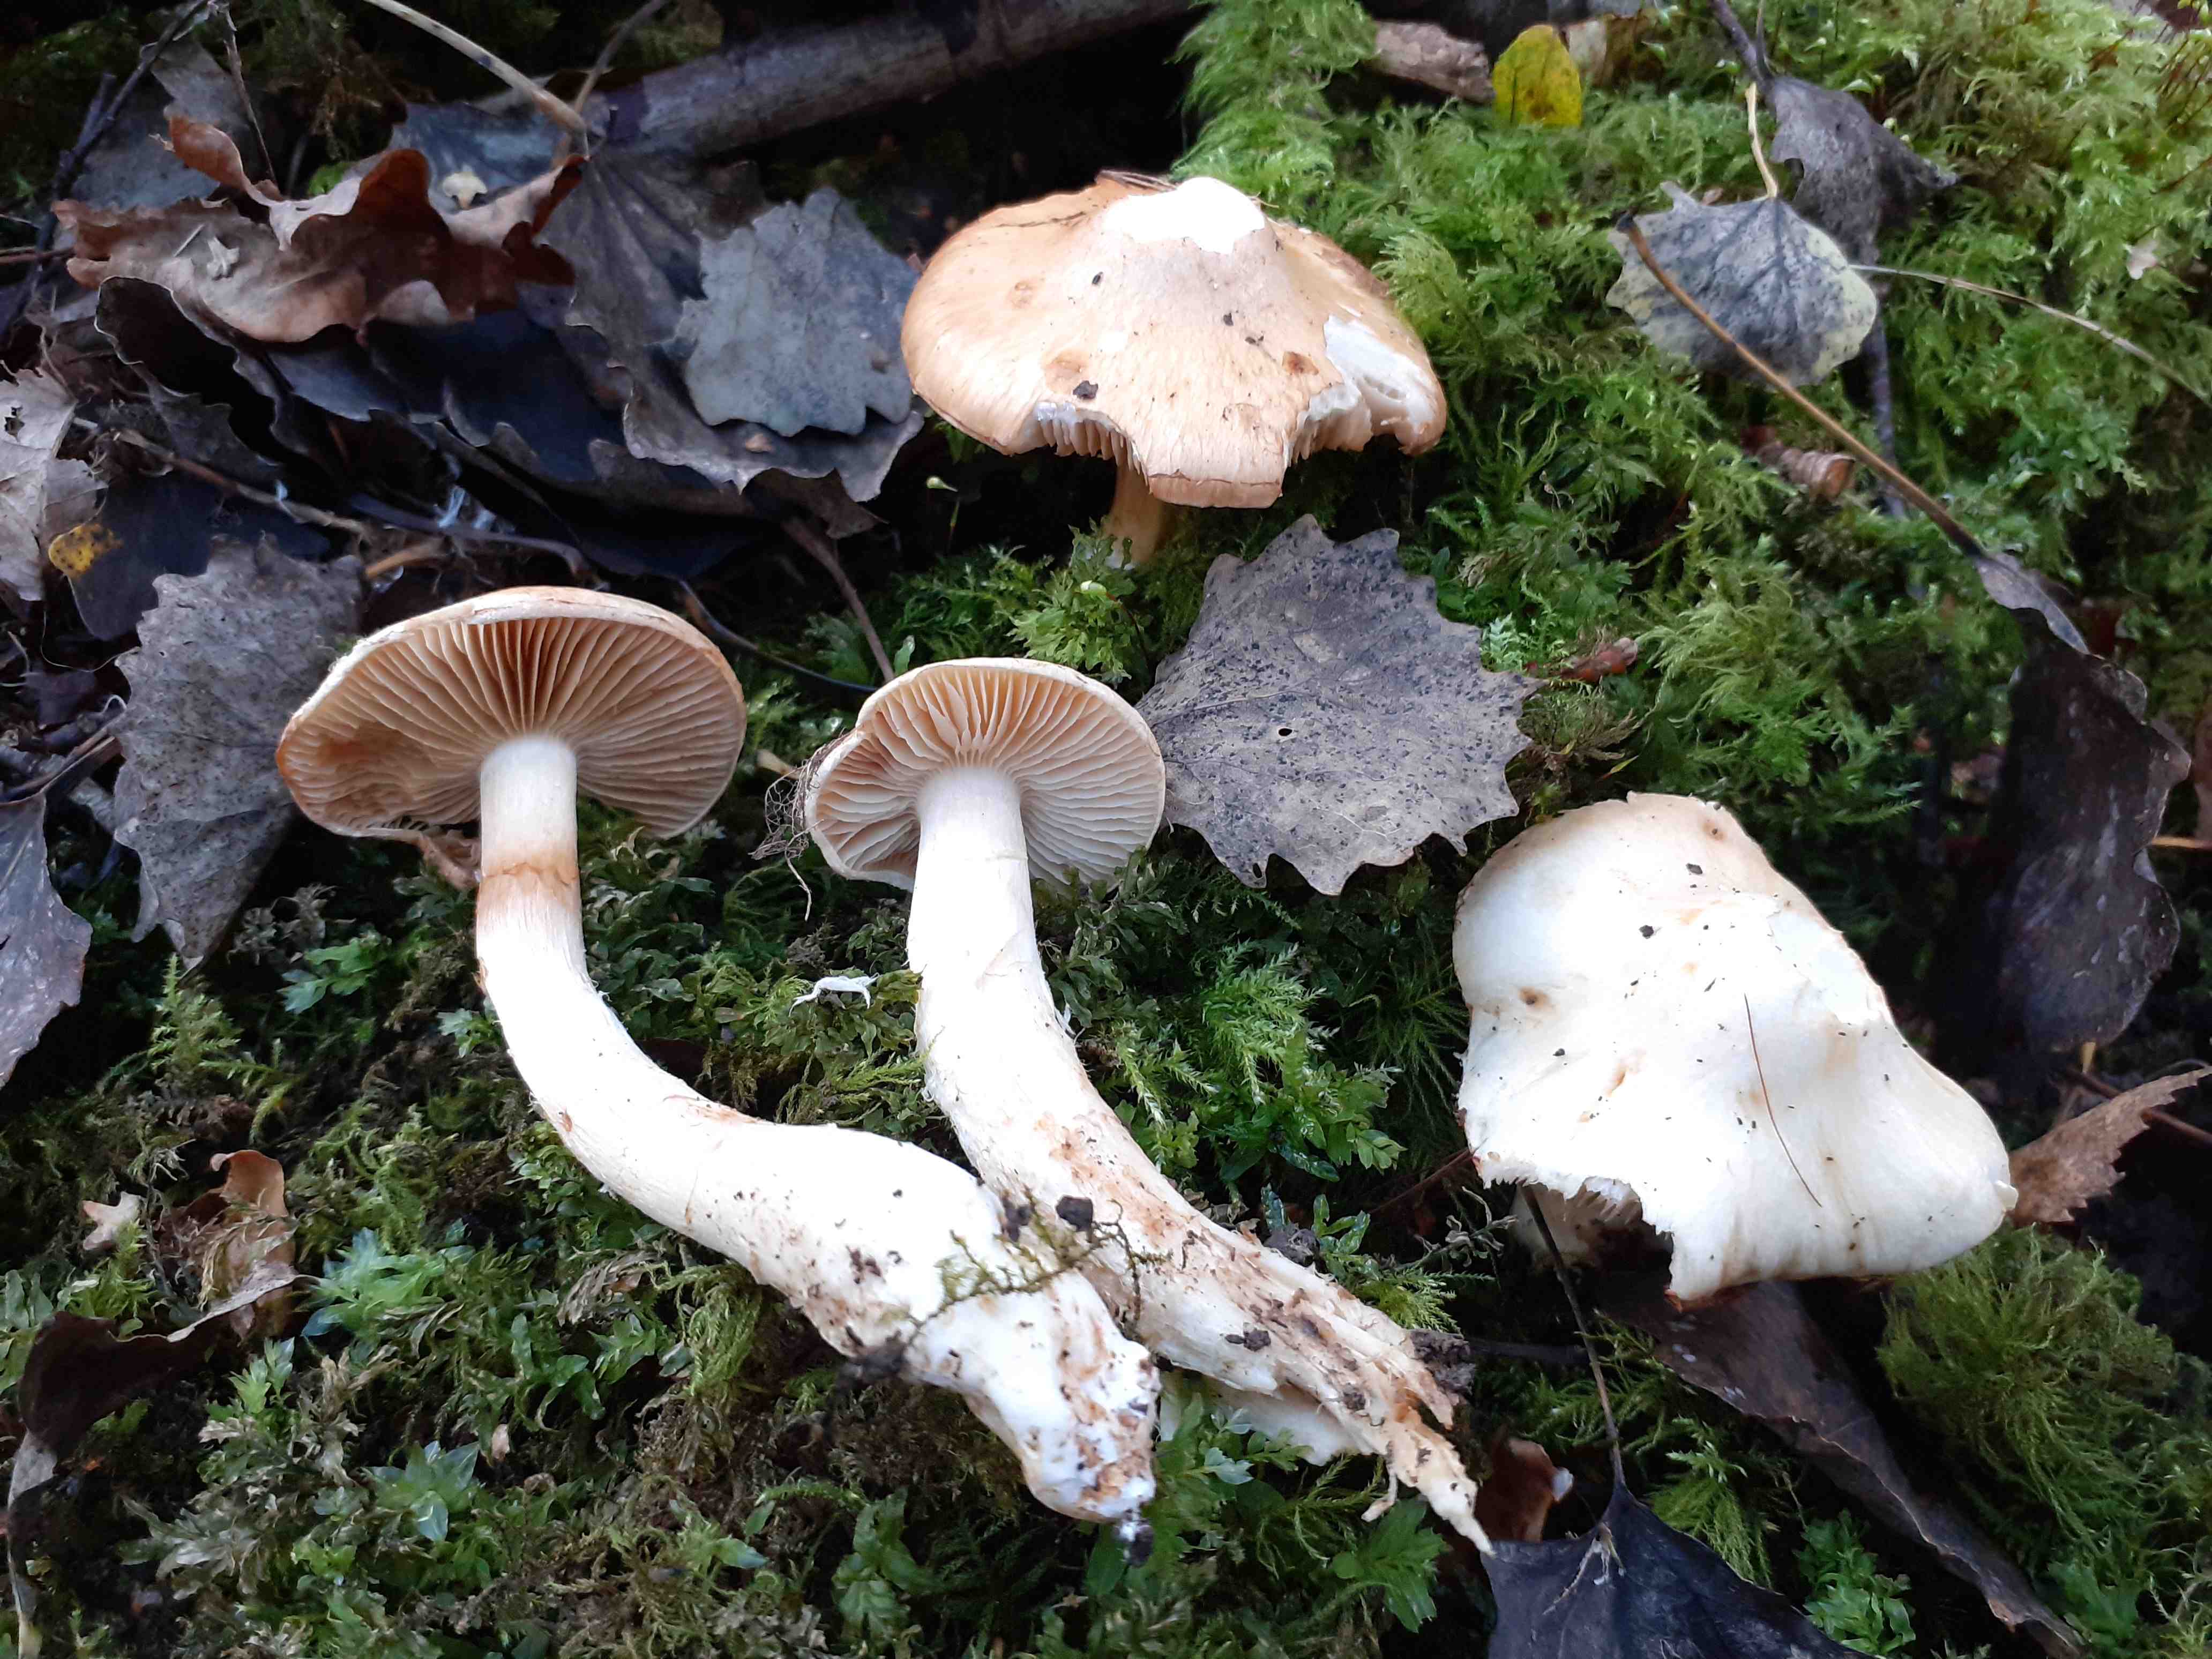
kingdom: Fungi
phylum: Basidiomycota
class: Agaricomycetes
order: Agaricales
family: Cortinariaceae
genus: Phlegmacium
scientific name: Phlegmacium argutum
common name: hvidlig slørhat
